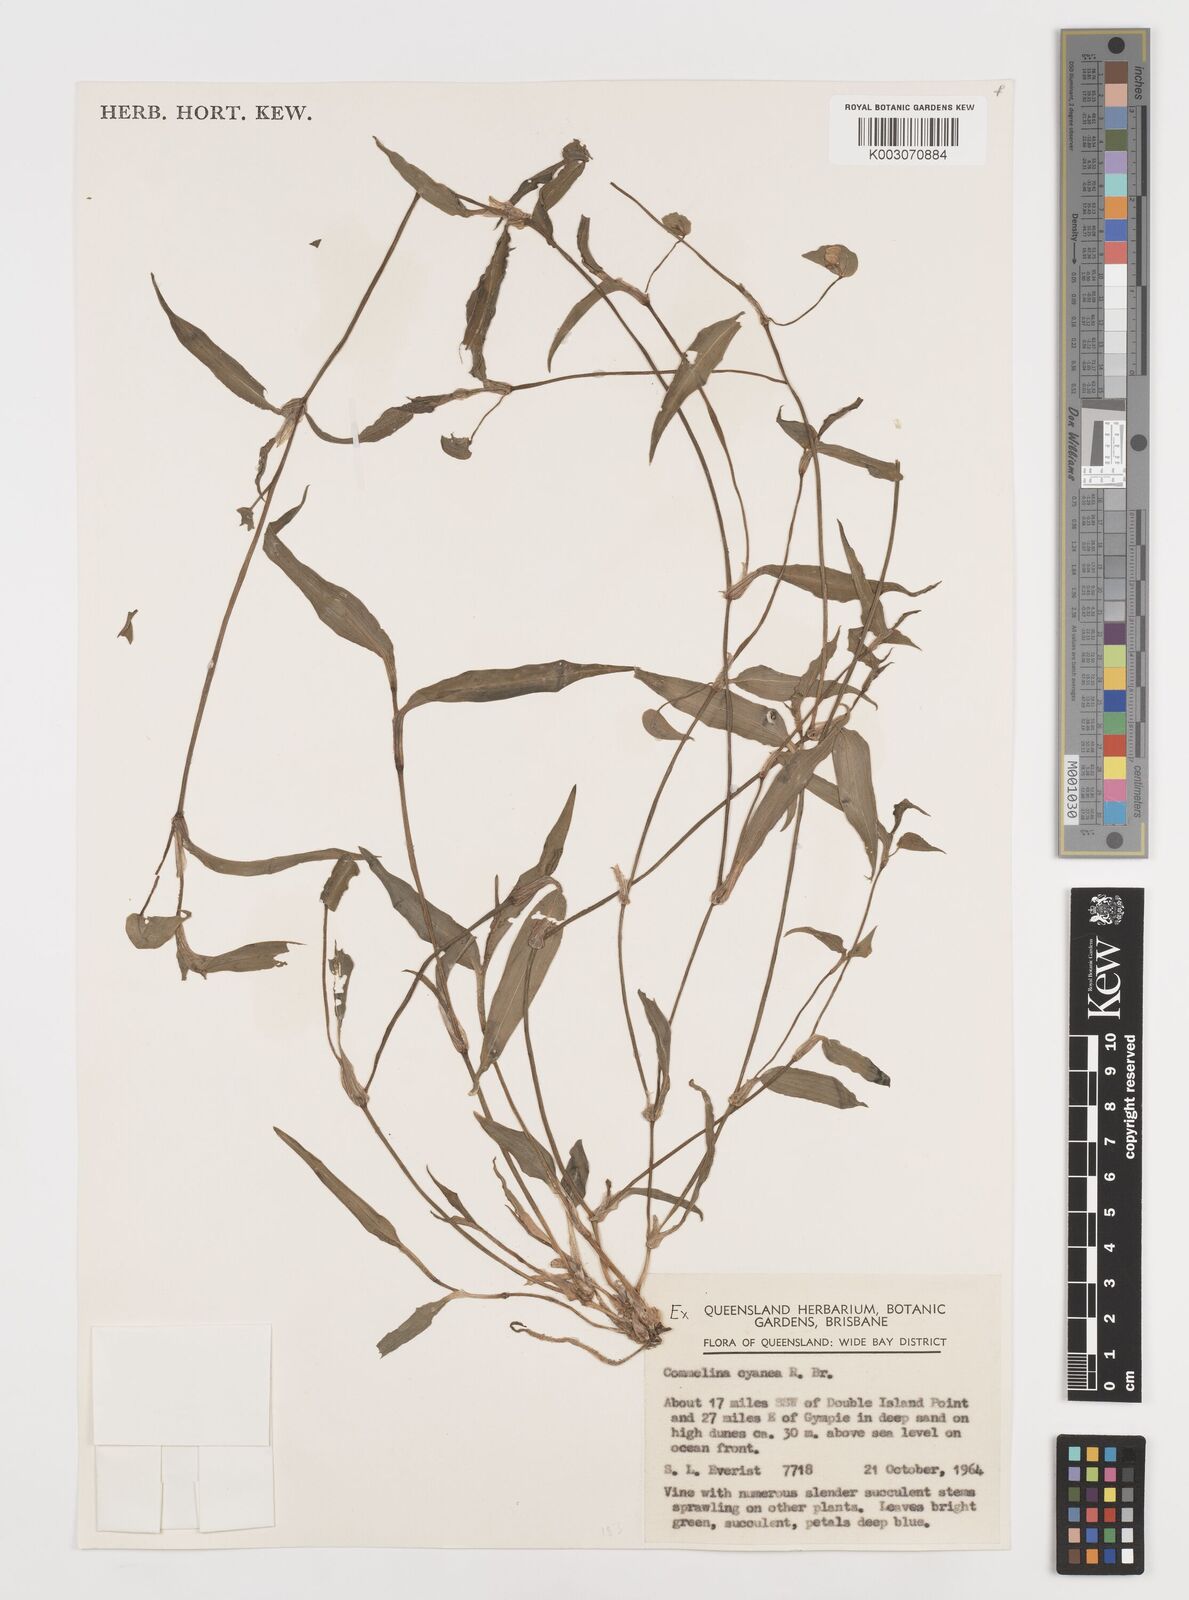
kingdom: Plantae
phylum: Tracheophyta
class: Liliopsida
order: Commelinales
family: Commelinaceae
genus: Commelina
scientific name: Commelina cyanea
